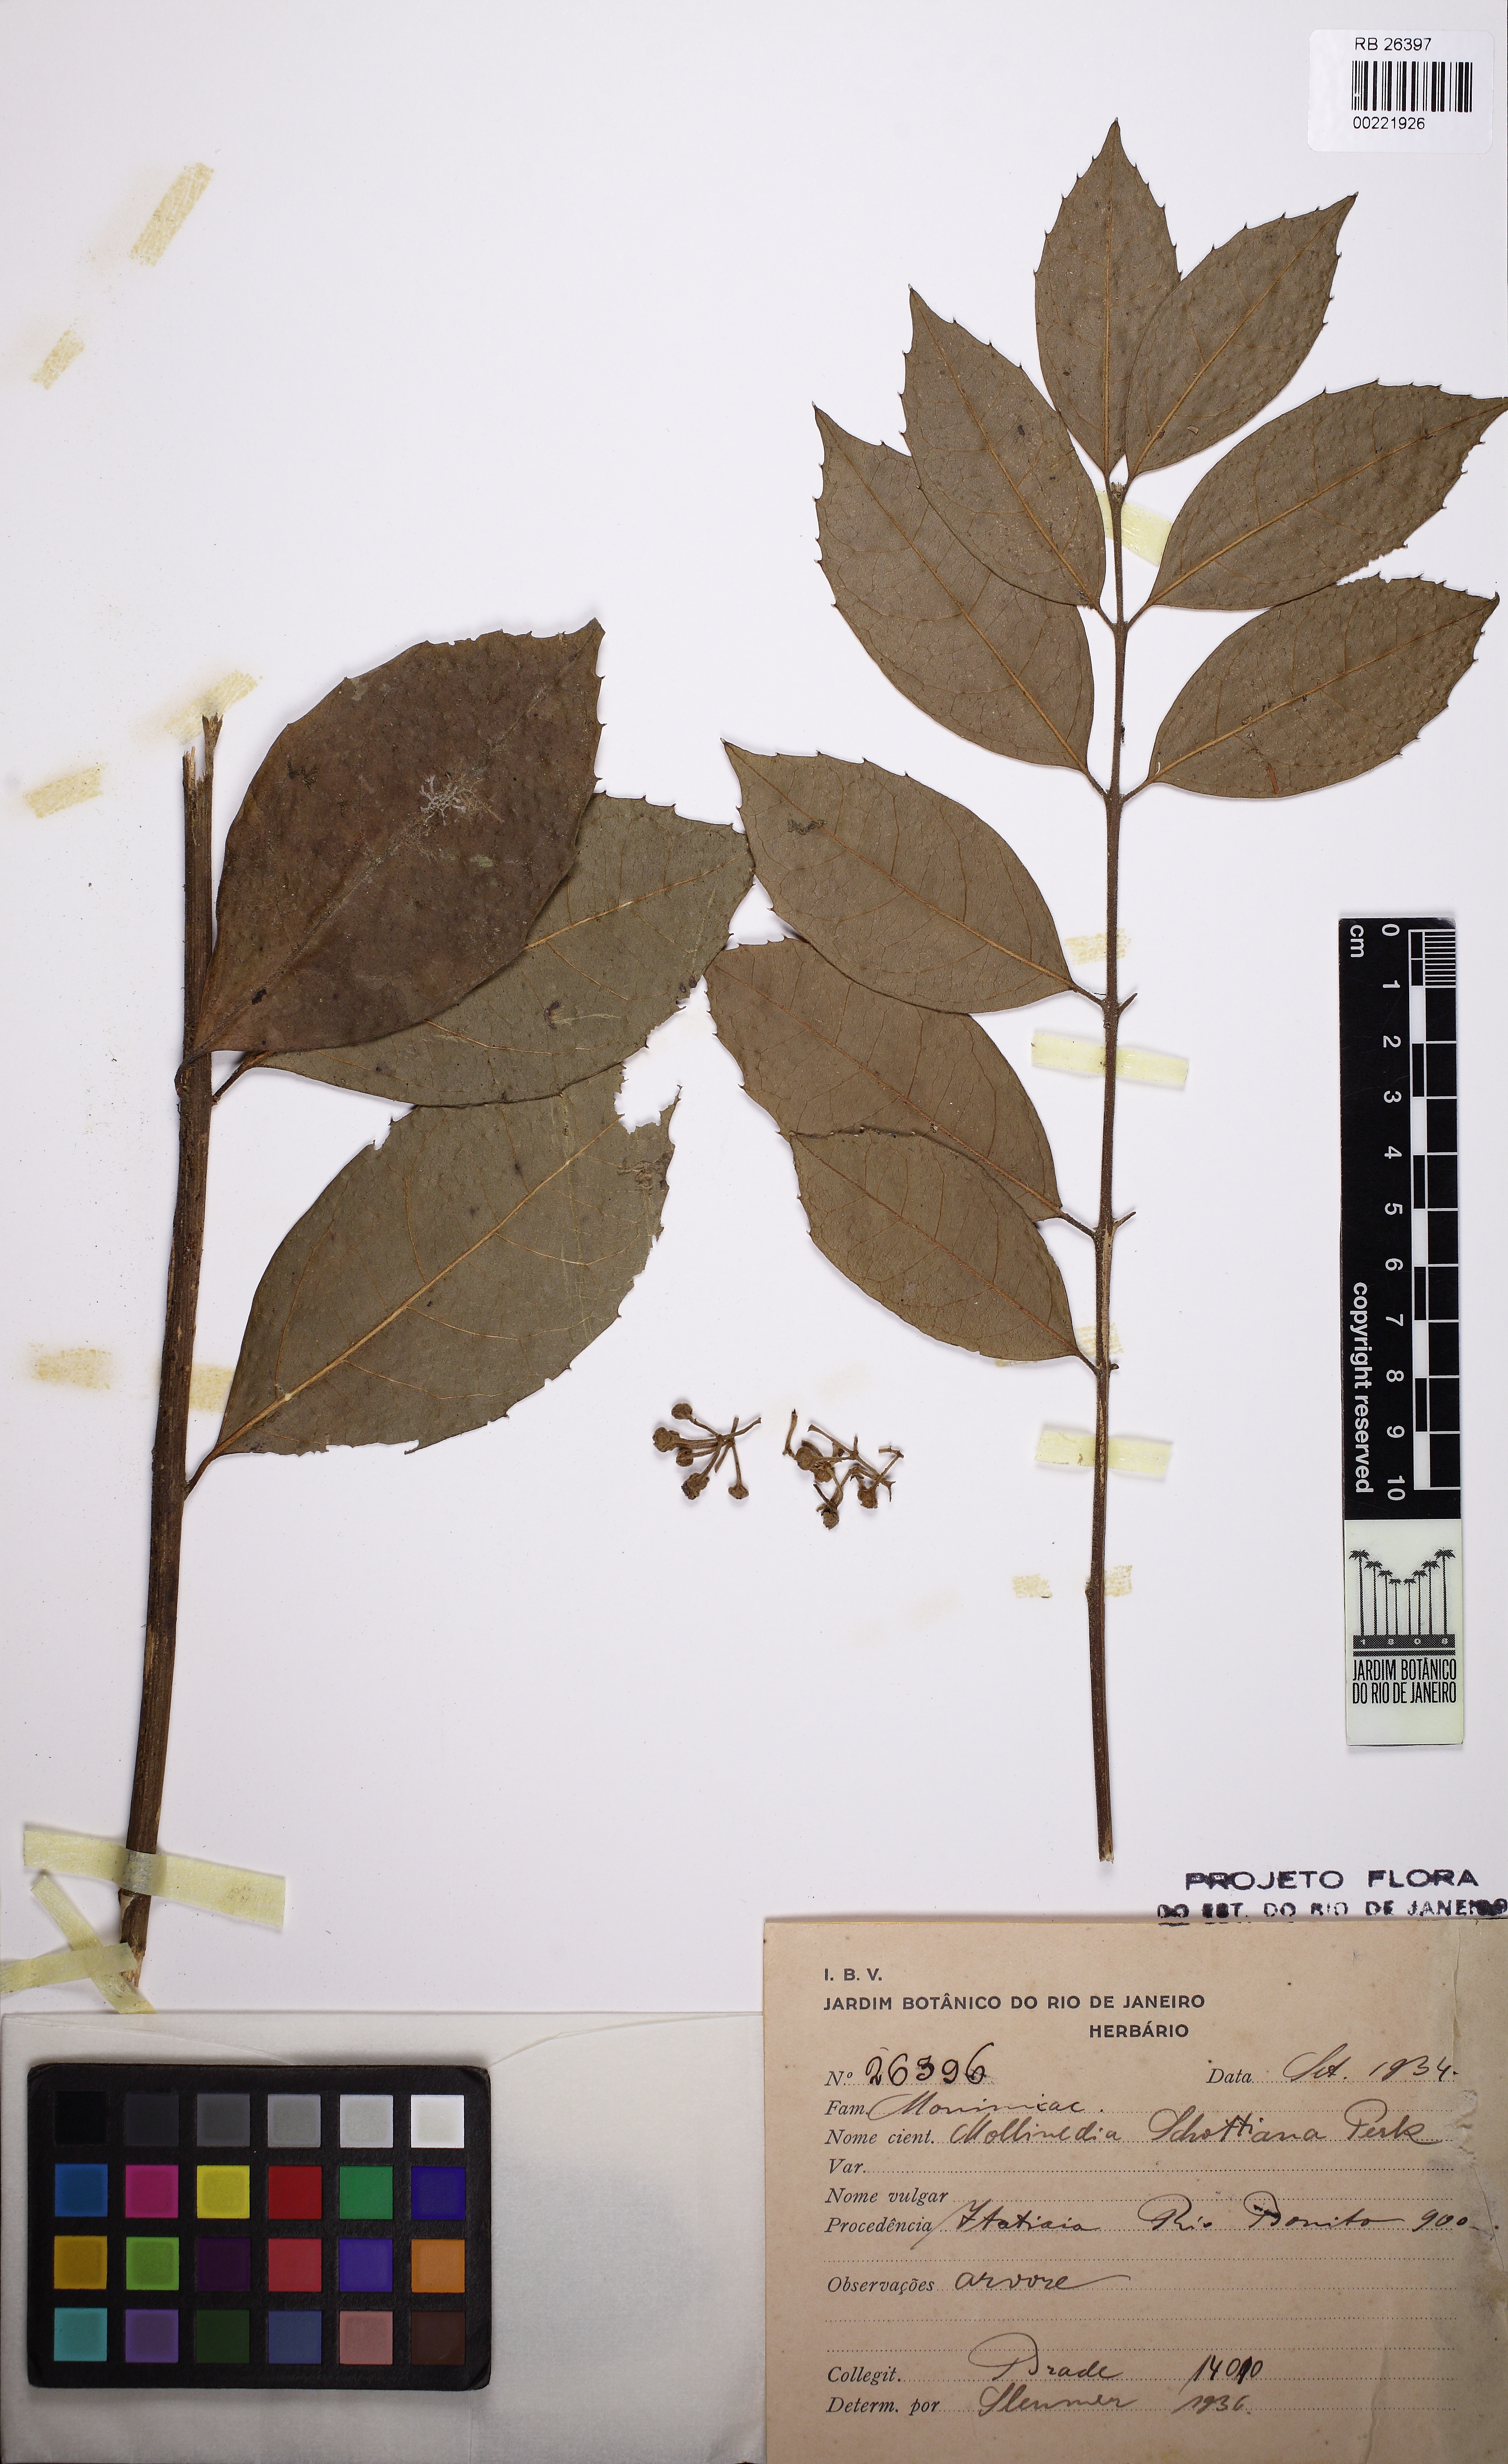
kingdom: Plantae
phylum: Tracheophyta
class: Magnoliopsida
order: Laurales
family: Monimiaceae
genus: Mollinedia
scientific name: Mollinedia umbellata
